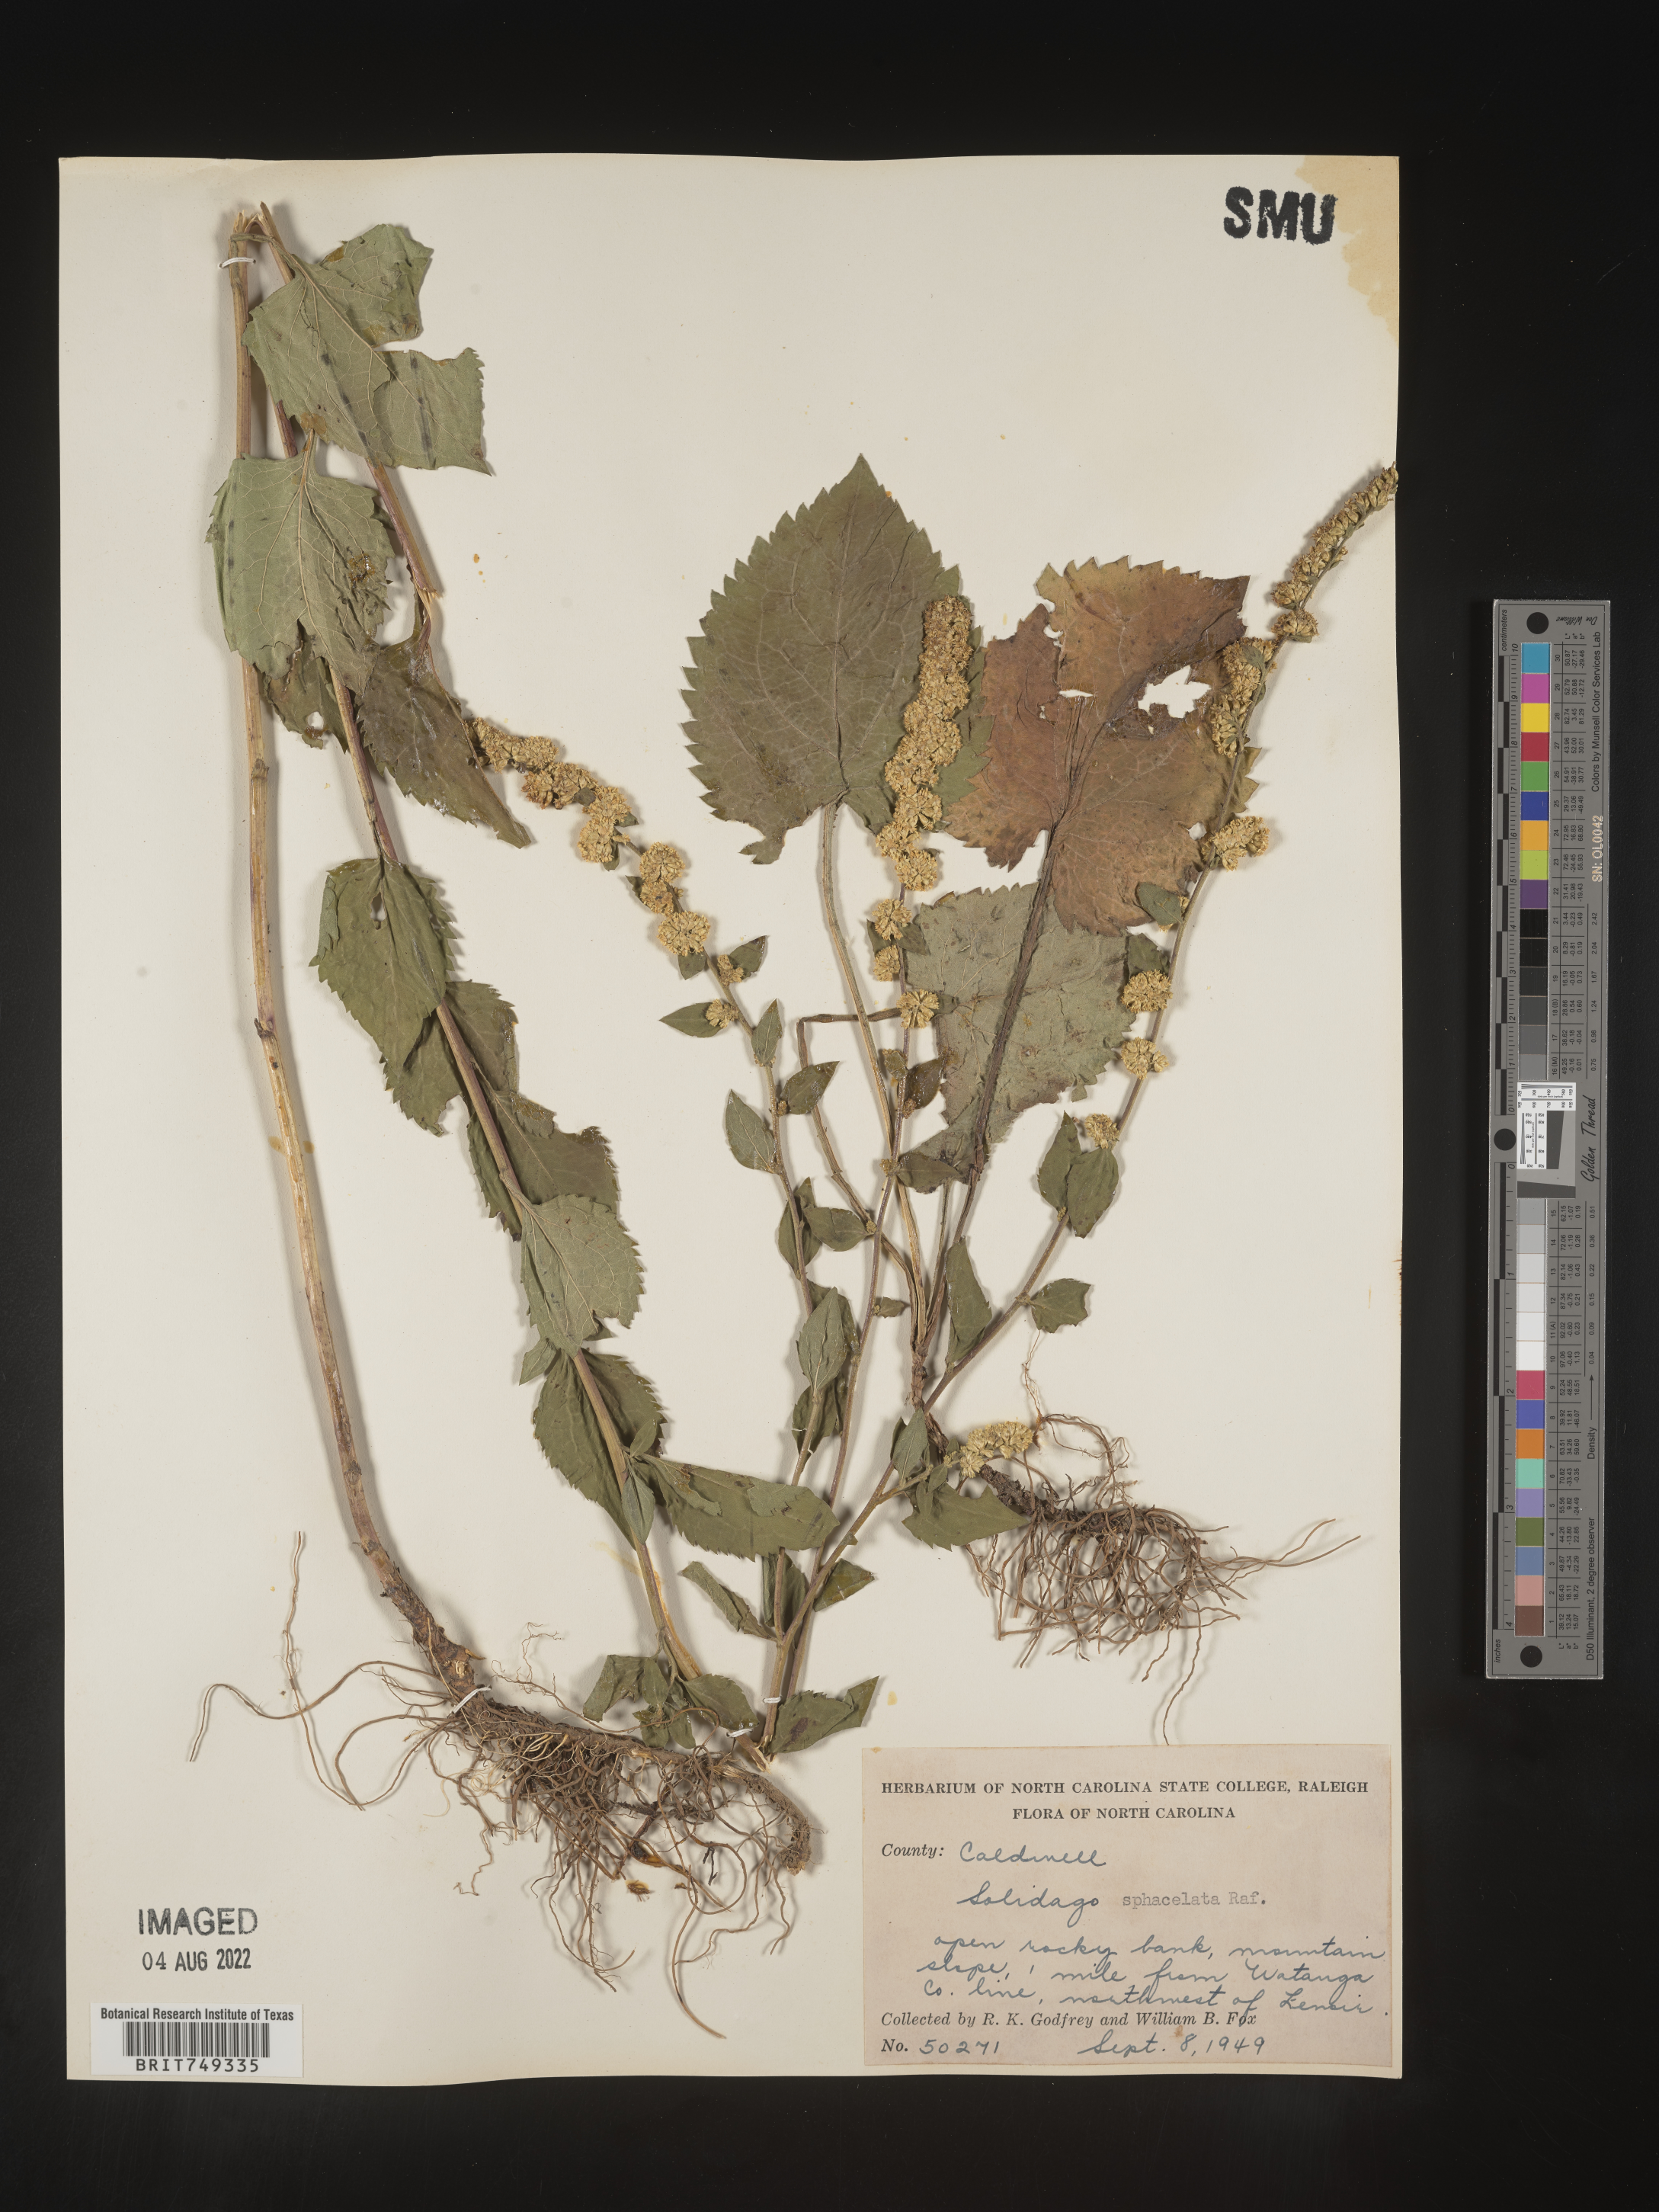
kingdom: Plantae
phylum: Tracheophyta
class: Magnoliopsida
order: Asterales
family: Asteraceae
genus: Solidago
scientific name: Solidago sphacelata
